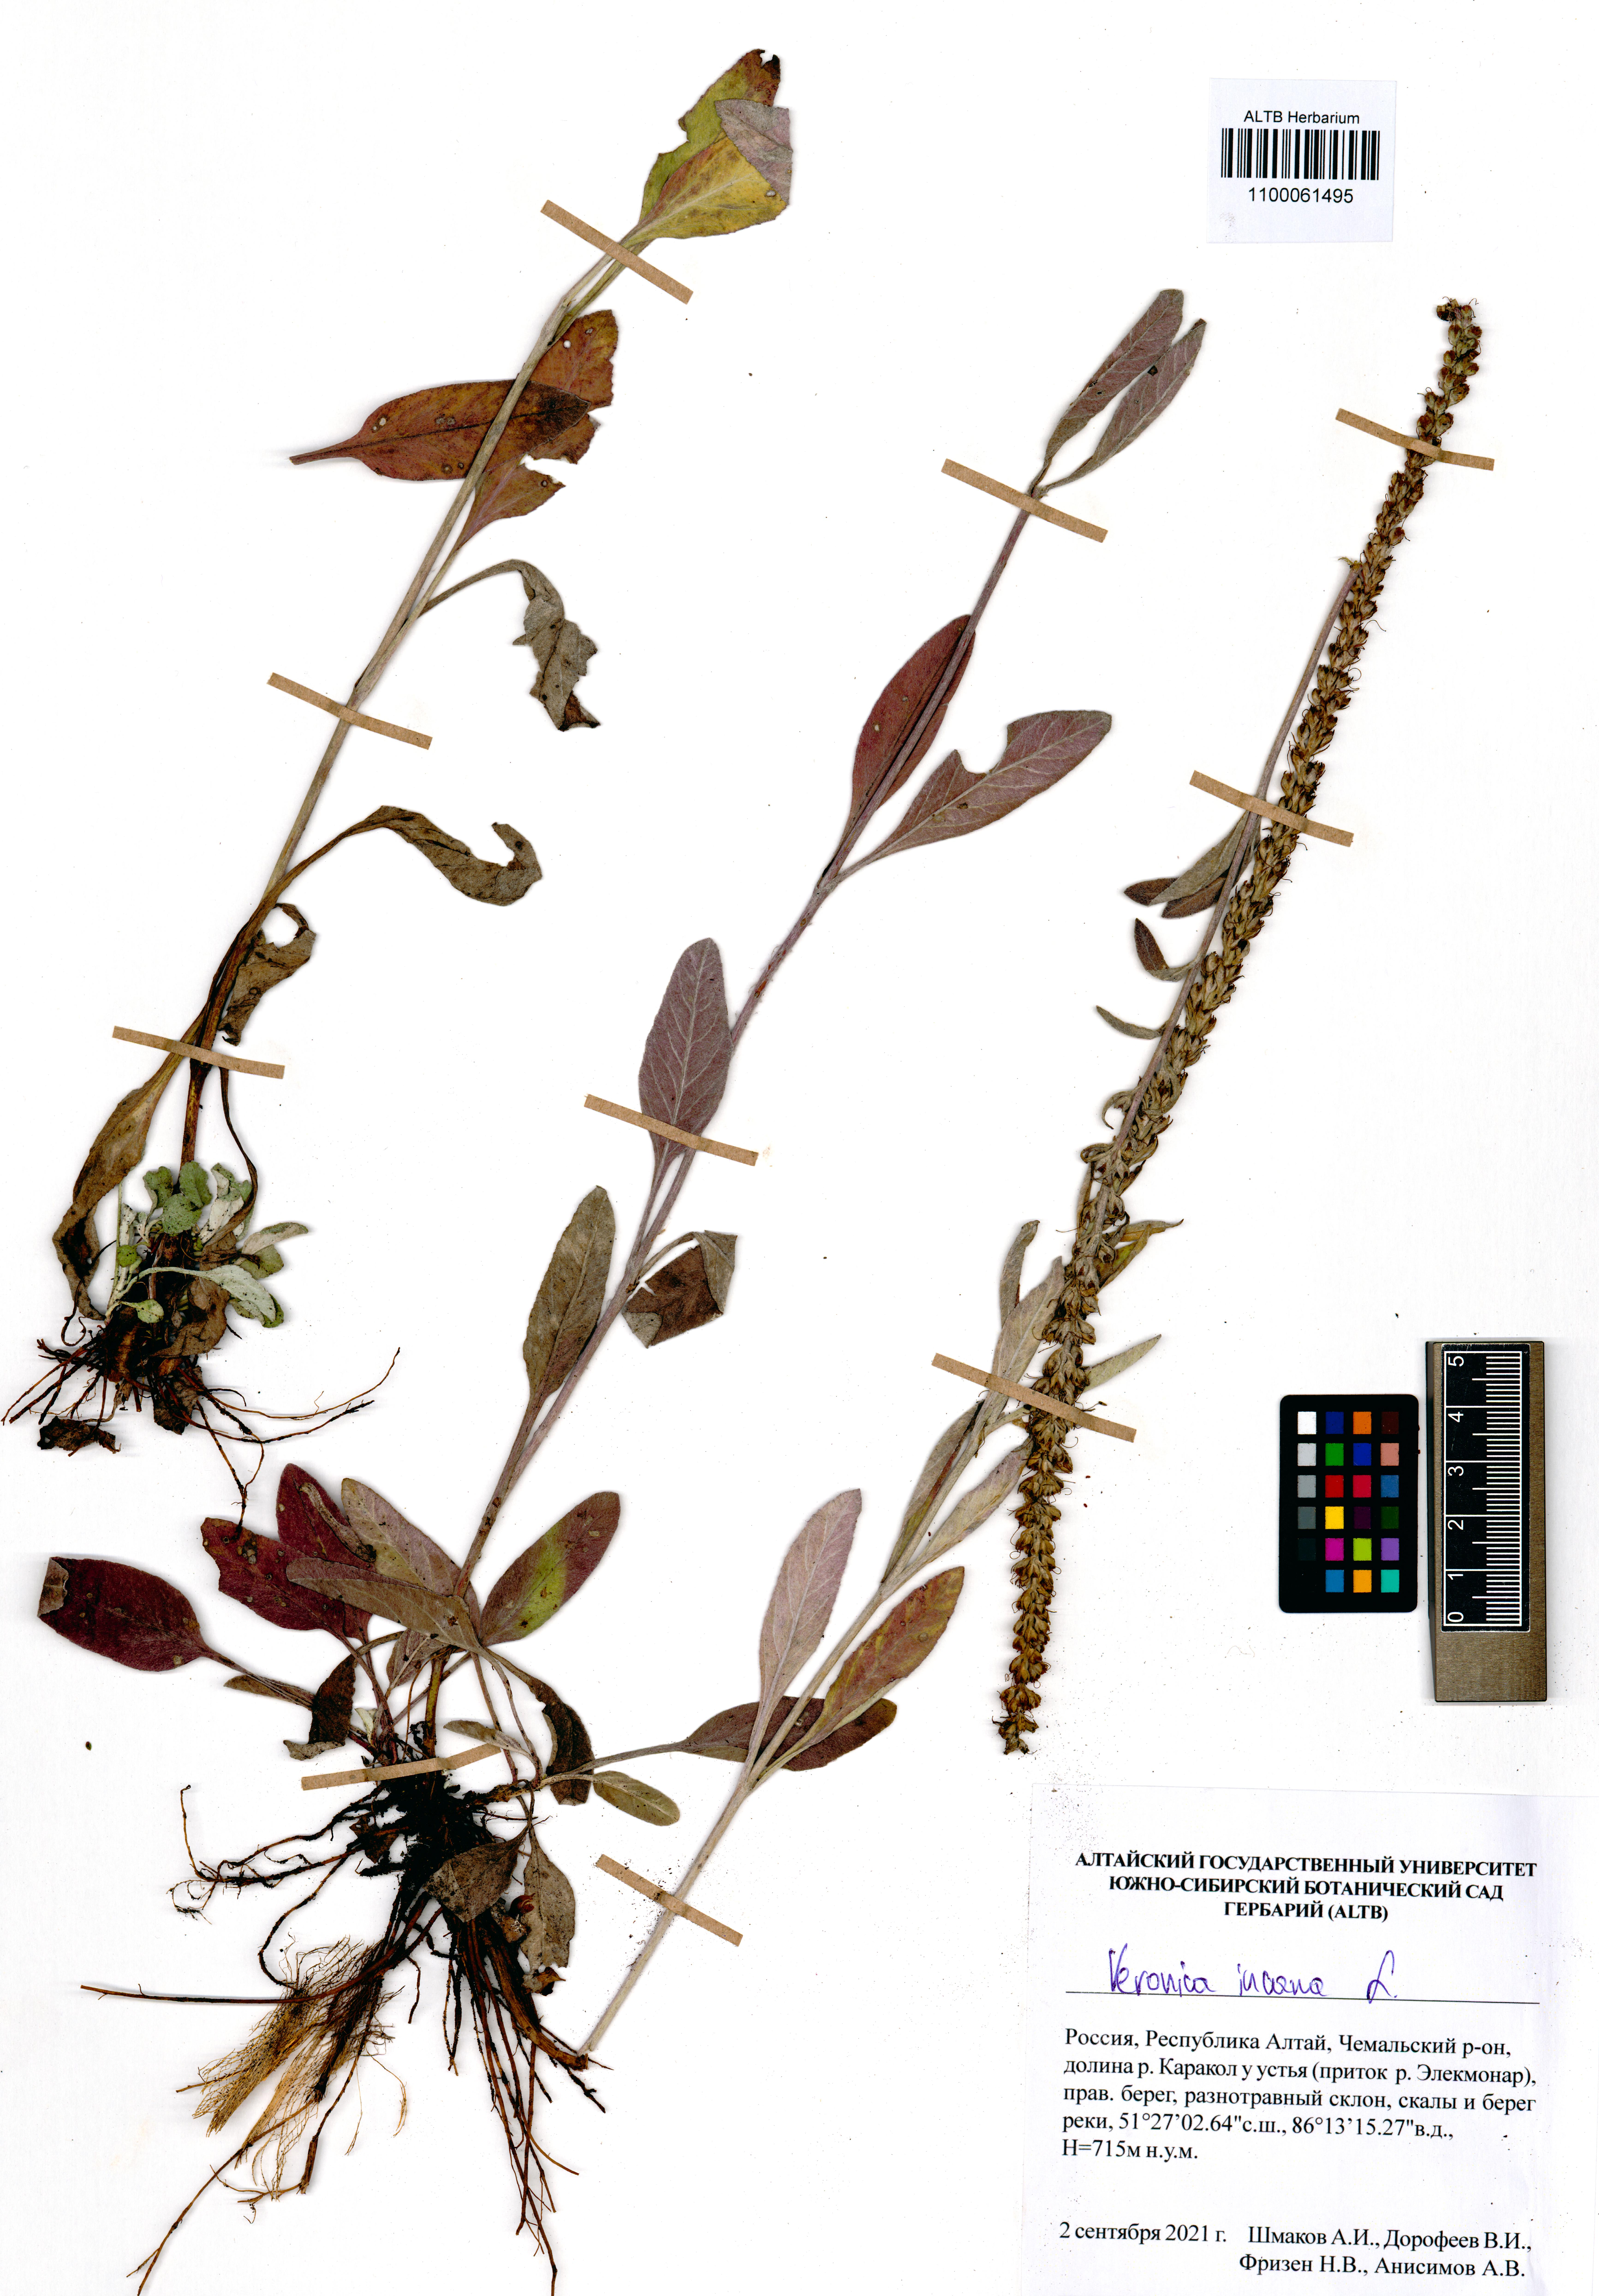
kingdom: Plantae
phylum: Tracheophyta
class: Magnoliopsida
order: Lamiales
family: Plantaginaceae
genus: Veronica
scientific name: Veronica incana
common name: Silver speedwell
